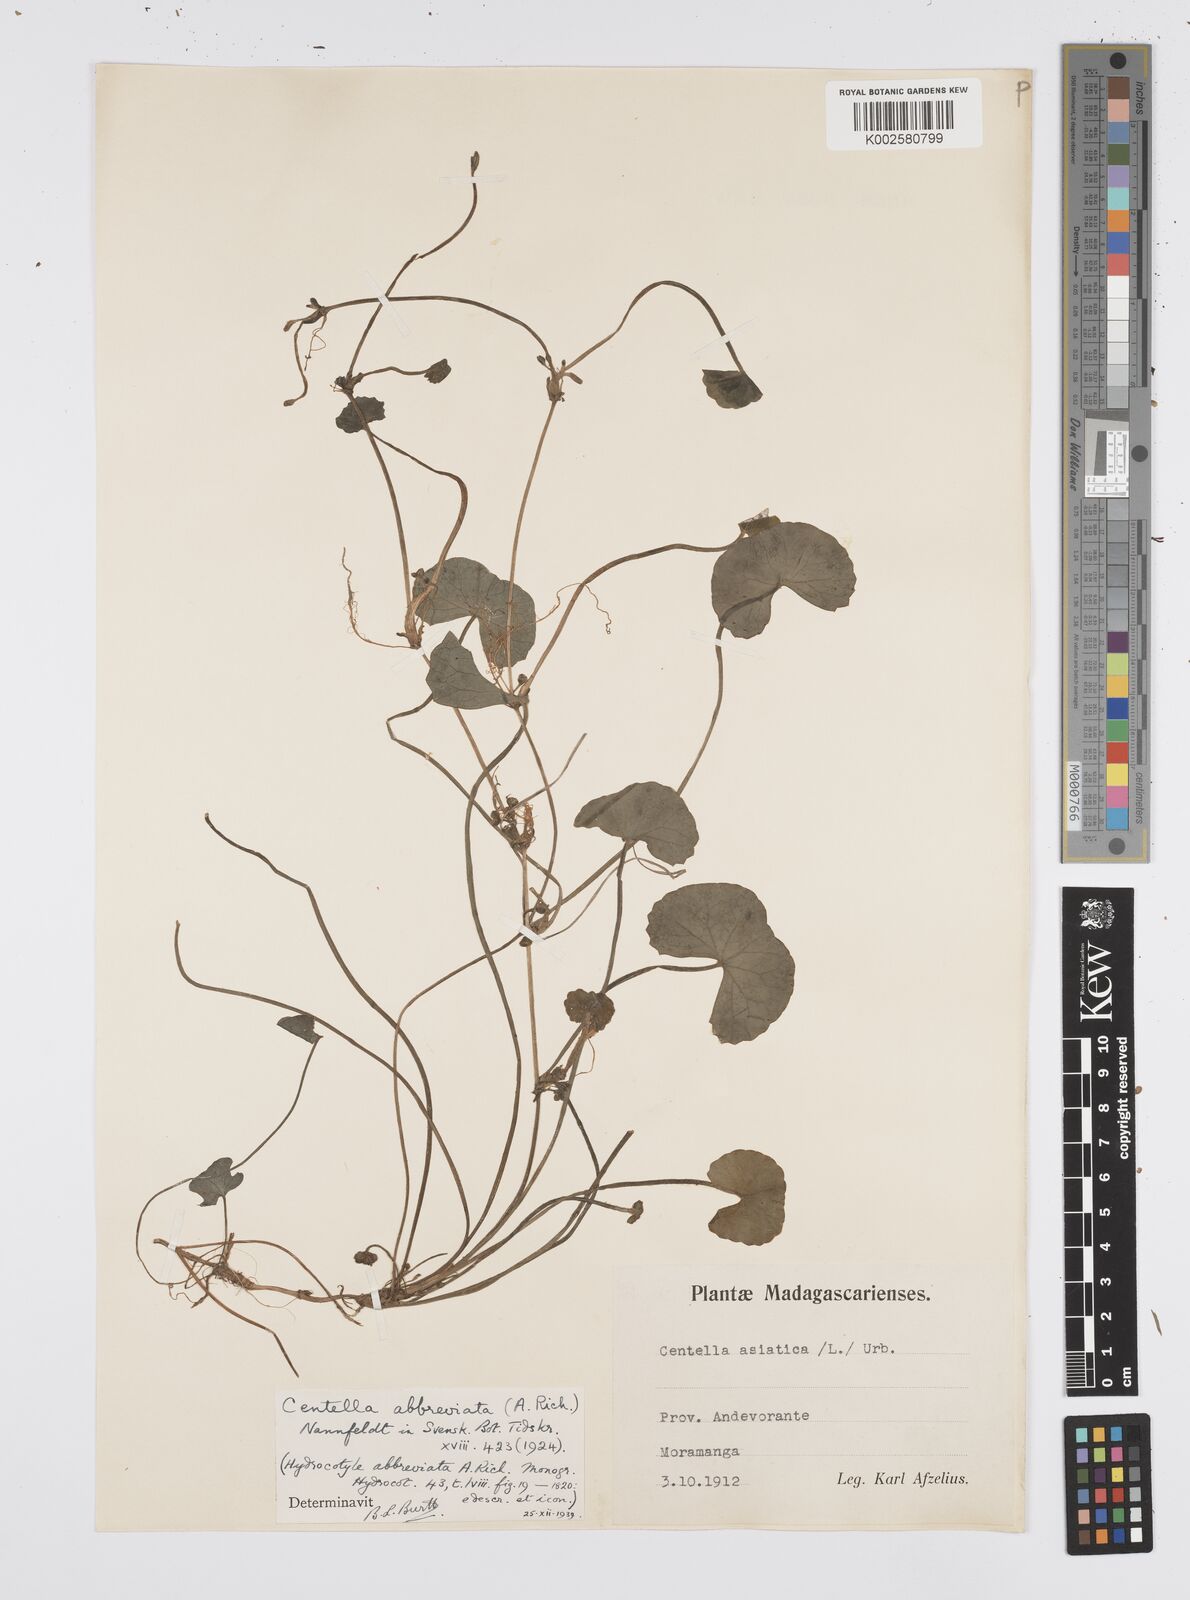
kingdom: Plantae
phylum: Tracheophyta
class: Magnoliopsida
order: Apiales
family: Apiaceae
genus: Centella
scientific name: Centella asiatica
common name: Spadeleaf
